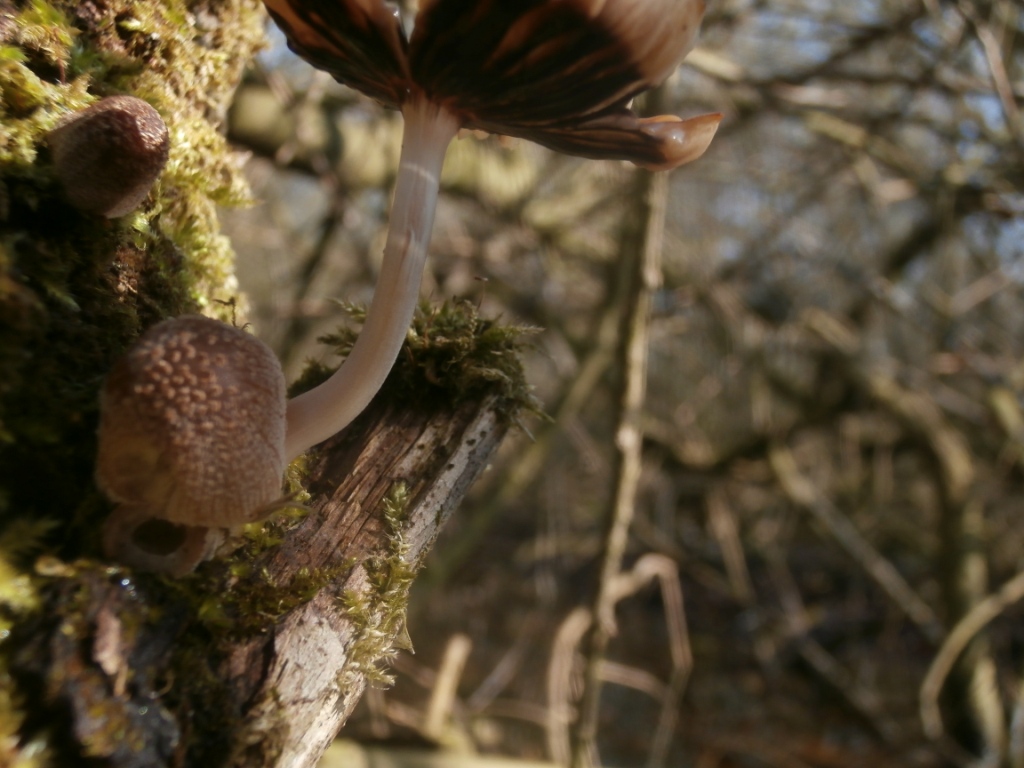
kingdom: Fungi
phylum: Basidiomycota
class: Agaricomycetes
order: Agaricales
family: Psathyrellaceae
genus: Coprinellus
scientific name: Coprinellus radians
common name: grynet blækhat
